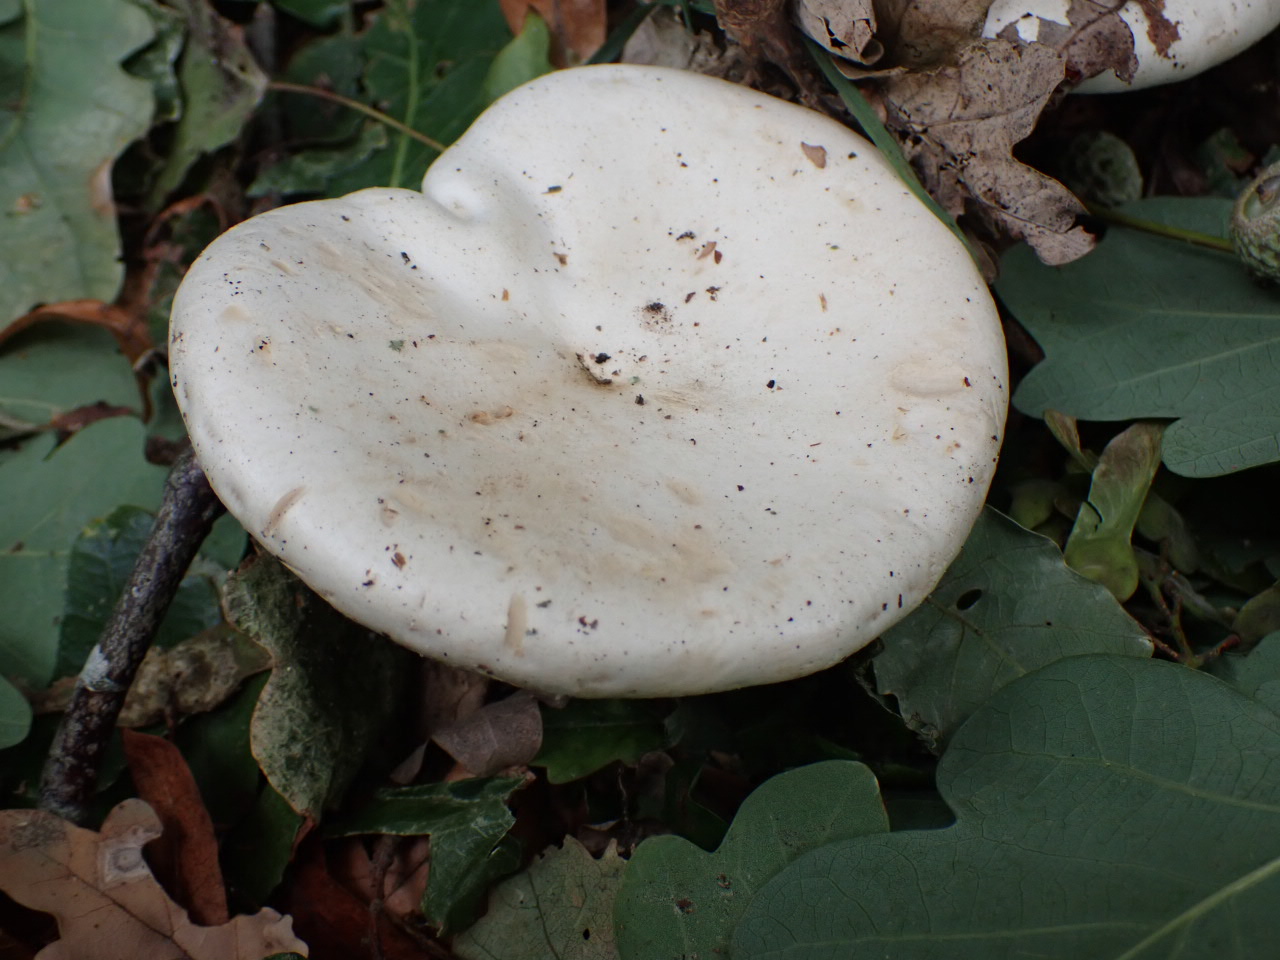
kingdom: Fungi
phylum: Basidiomycota
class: Agaricomycetes
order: Agaricales
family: Entolomataceae
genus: Clitopilus
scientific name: Clitopilus prunulus
